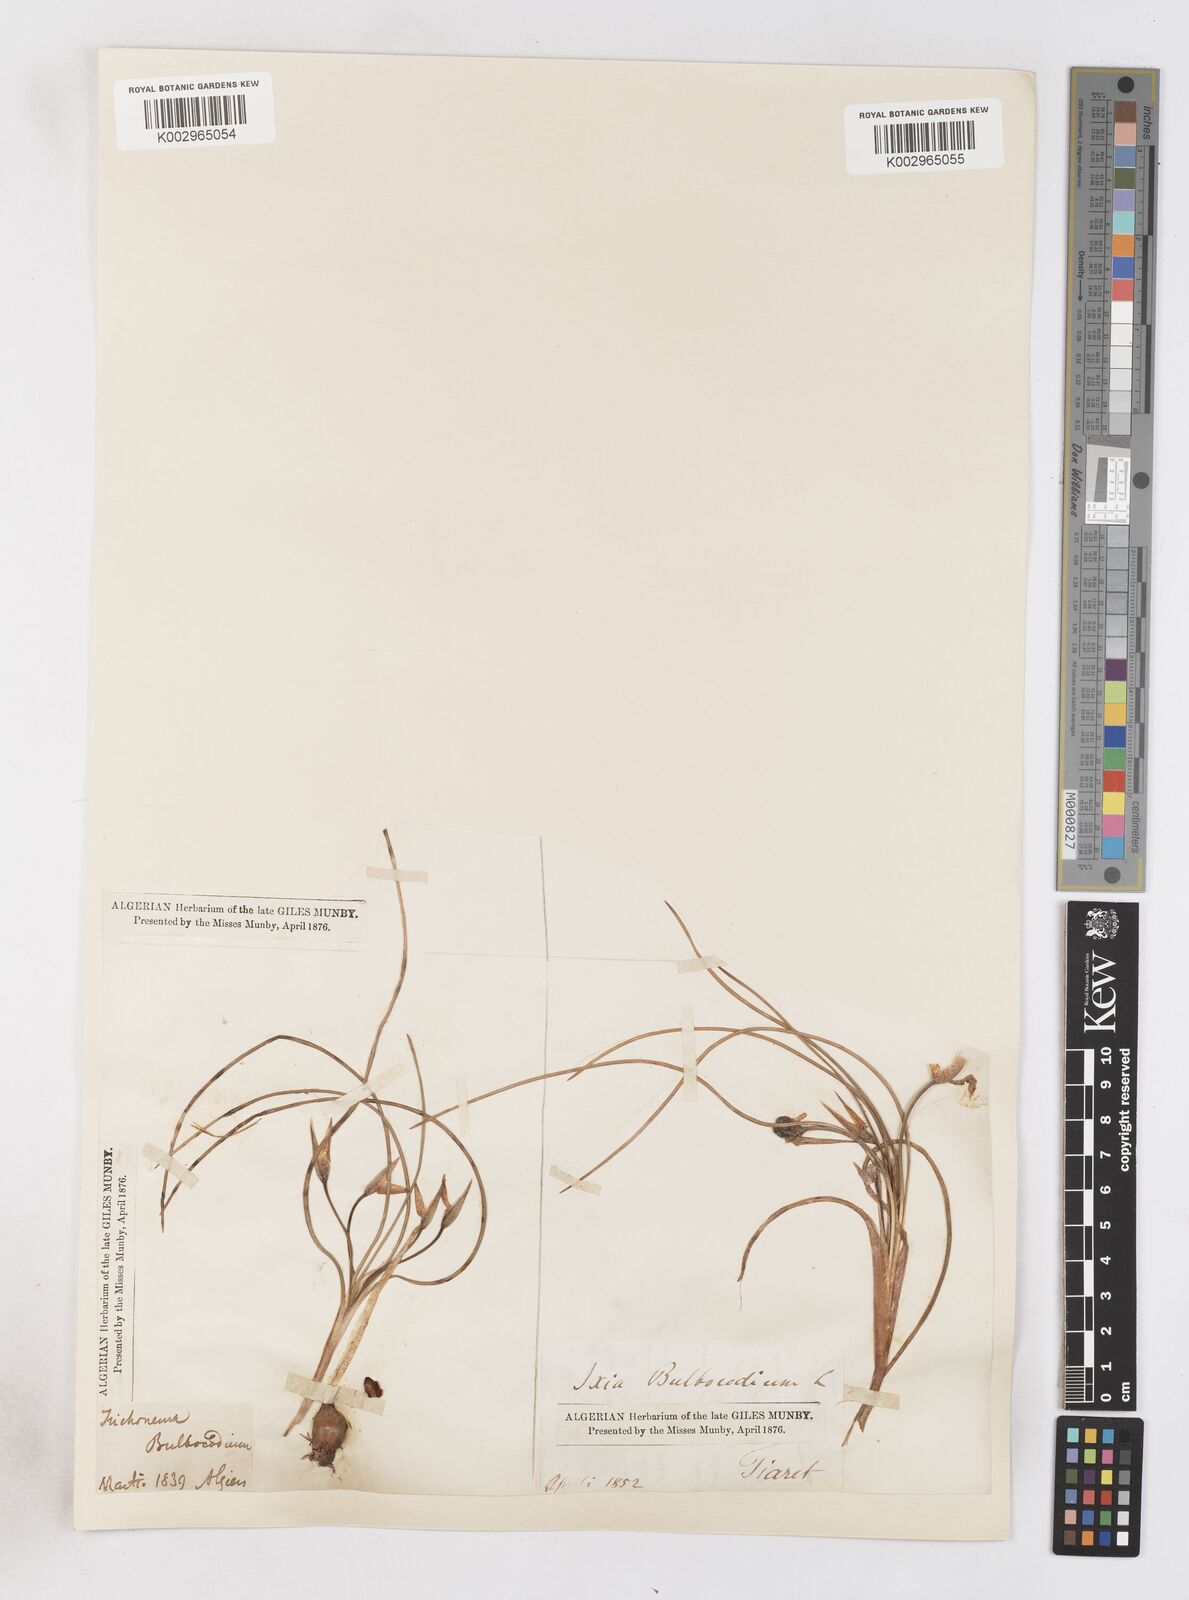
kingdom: Plantae
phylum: Tracheophyta
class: Liliopsida
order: Asparagales
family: Iridaceae
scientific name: Iridaceae
